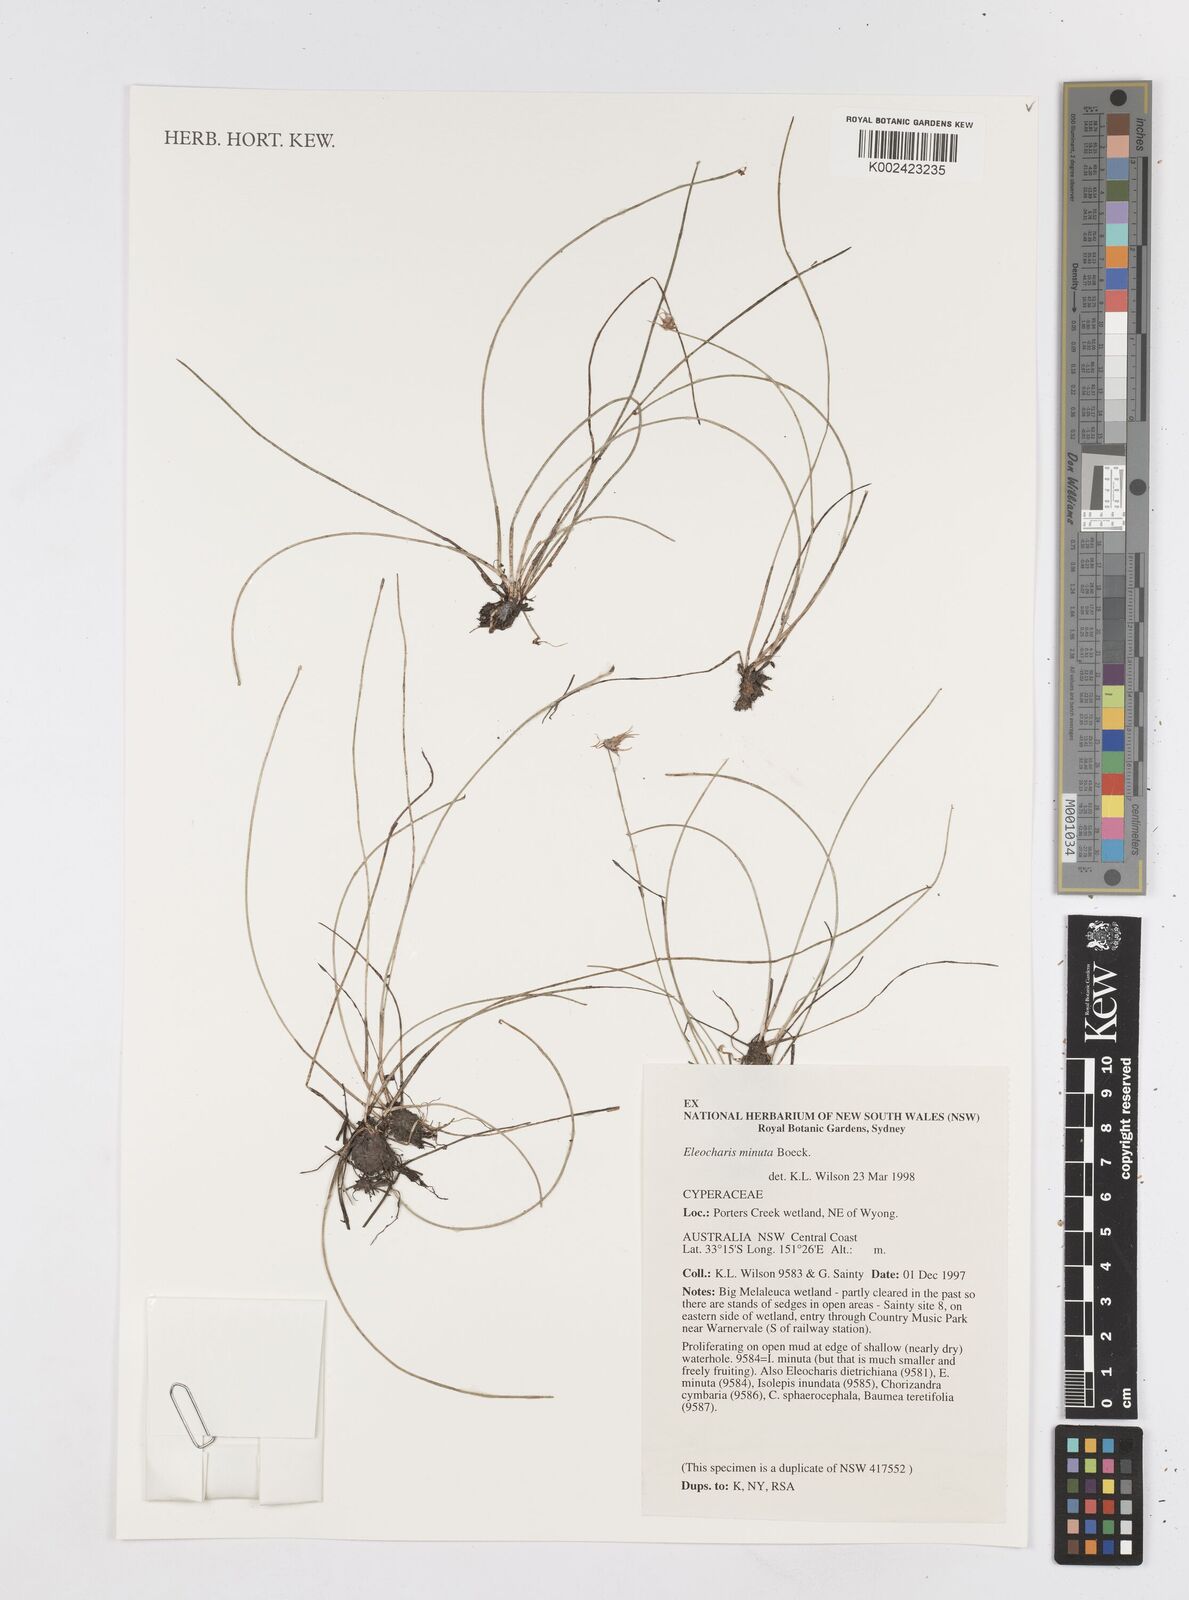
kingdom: Plantae
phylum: Tracheophyta
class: Liliopsida
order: Poales
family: Cyperaceae
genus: Eleocharis
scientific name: Eleocharis minuta
